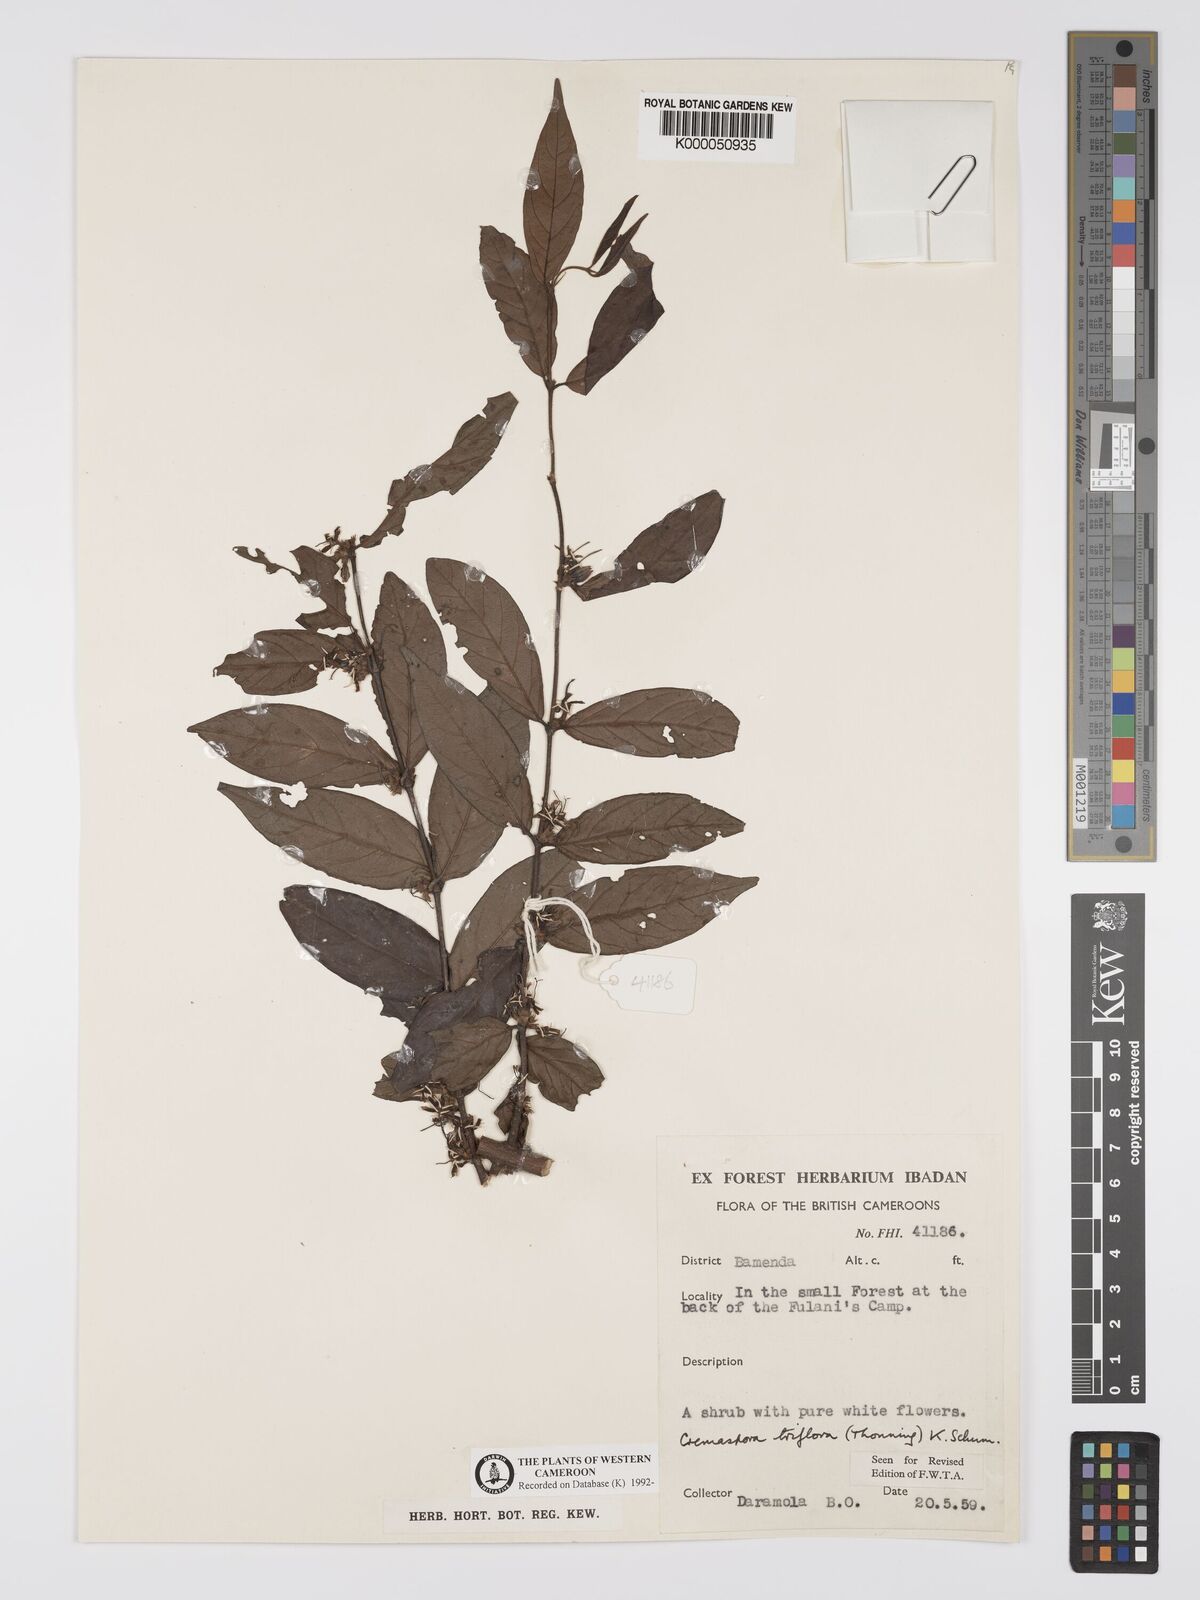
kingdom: Plantae
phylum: Tracheophyta
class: Magnoliopsida
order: Gentianales
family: Rubiaceae
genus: Cremaspora
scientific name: Cremaspora triflora
